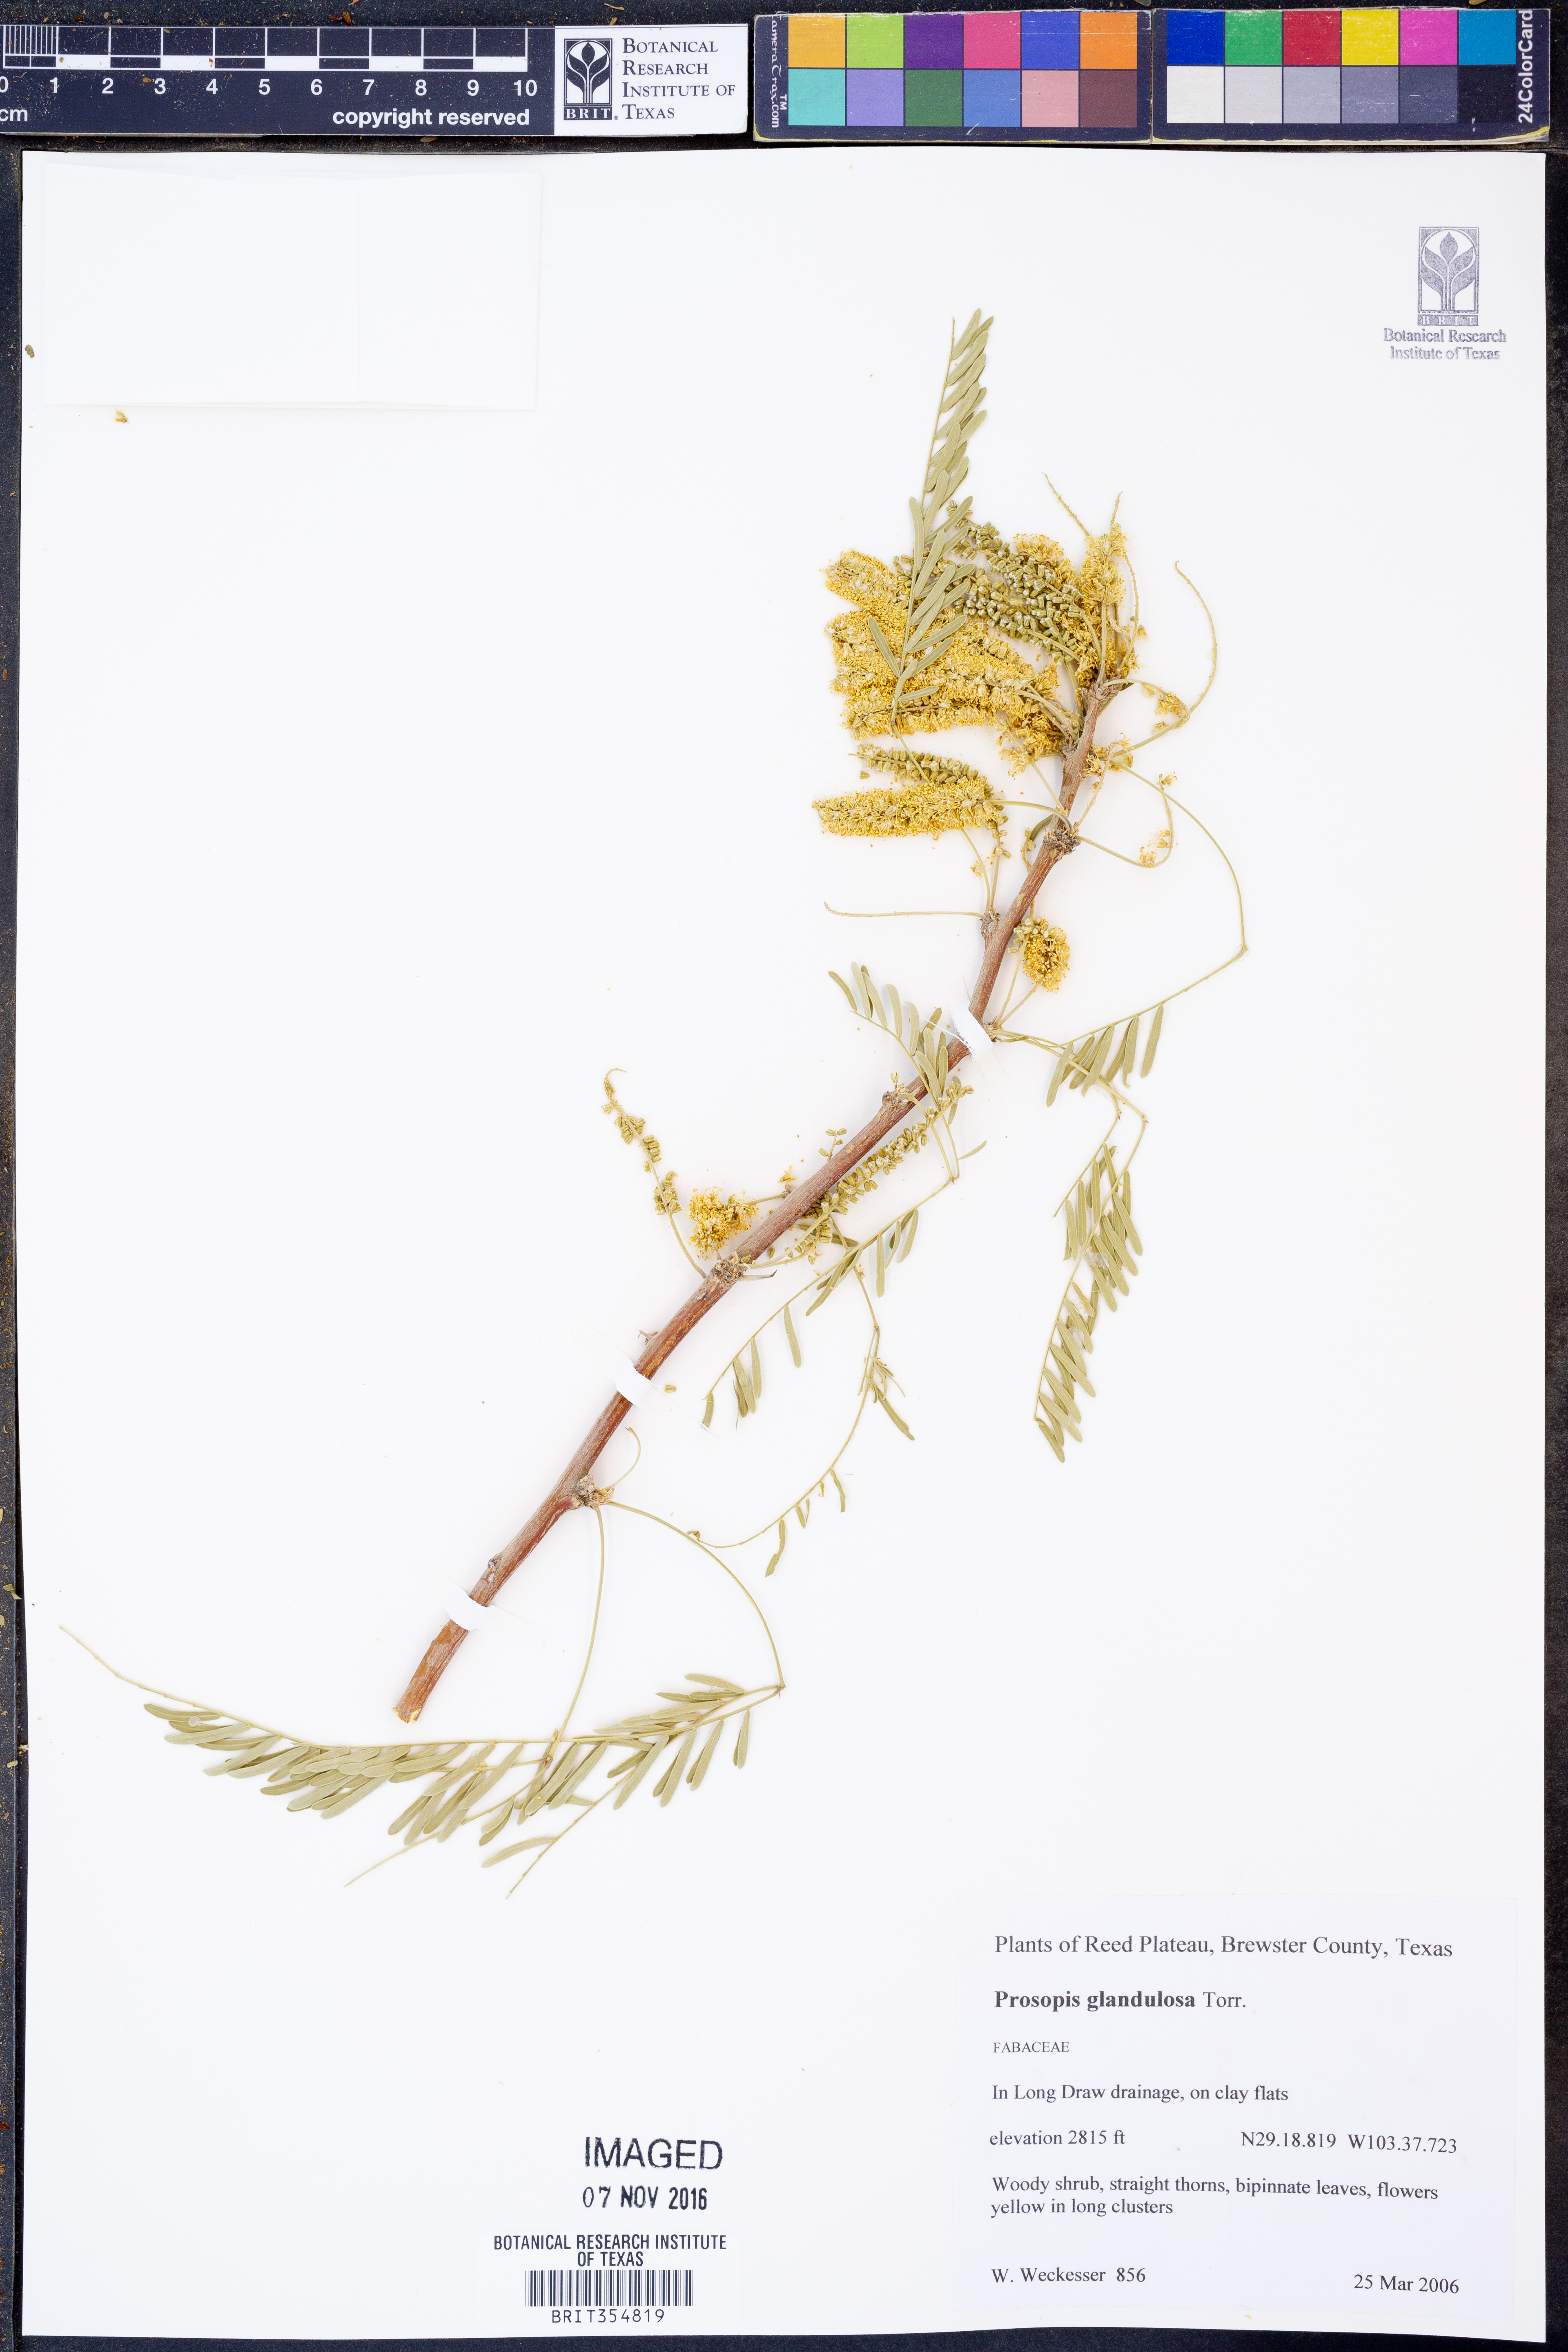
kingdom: Plantae
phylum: Tracheophyta
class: Magnoliopsida
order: Fabales
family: Fabaceae
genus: Prosopis
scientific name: Prosopis glandulosa
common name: Honey mesquite
